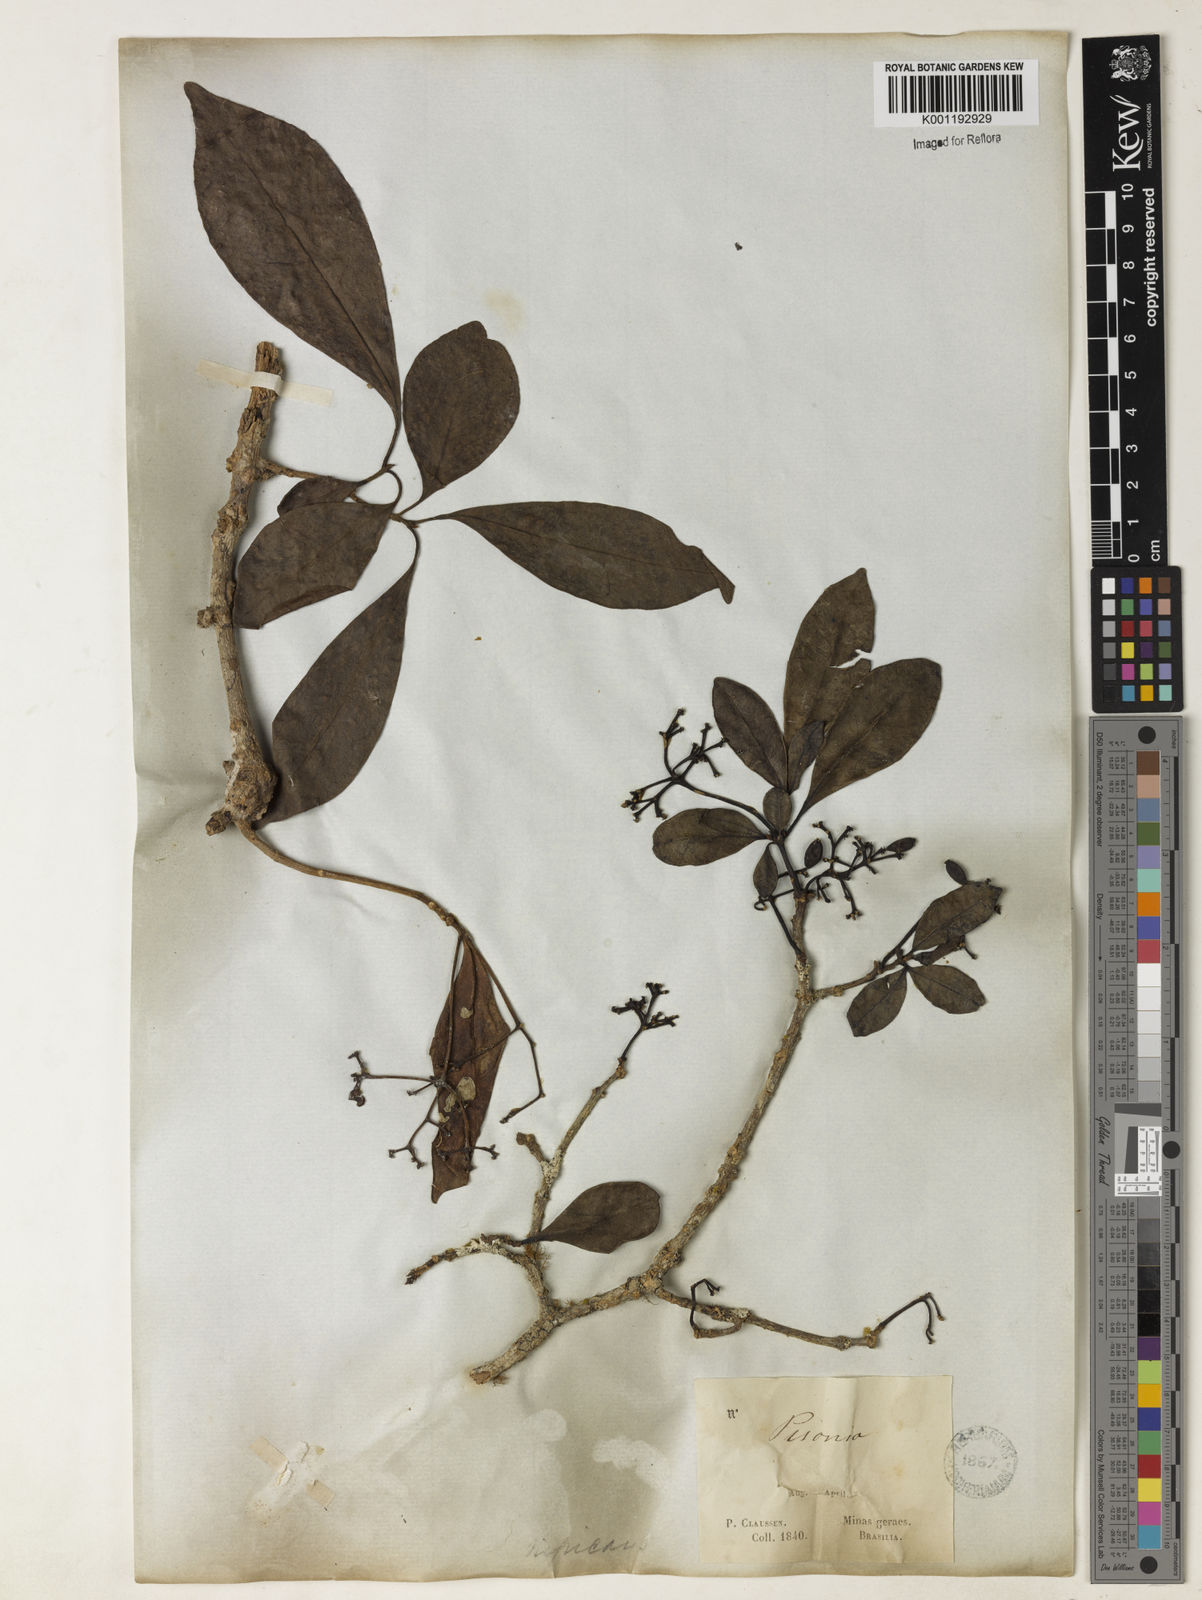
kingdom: Plantae
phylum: Tracheophyta
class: Magnoliopsida
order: Caryophyllales
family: Nyctaginaceae
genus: Guapira
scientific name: Guapira
